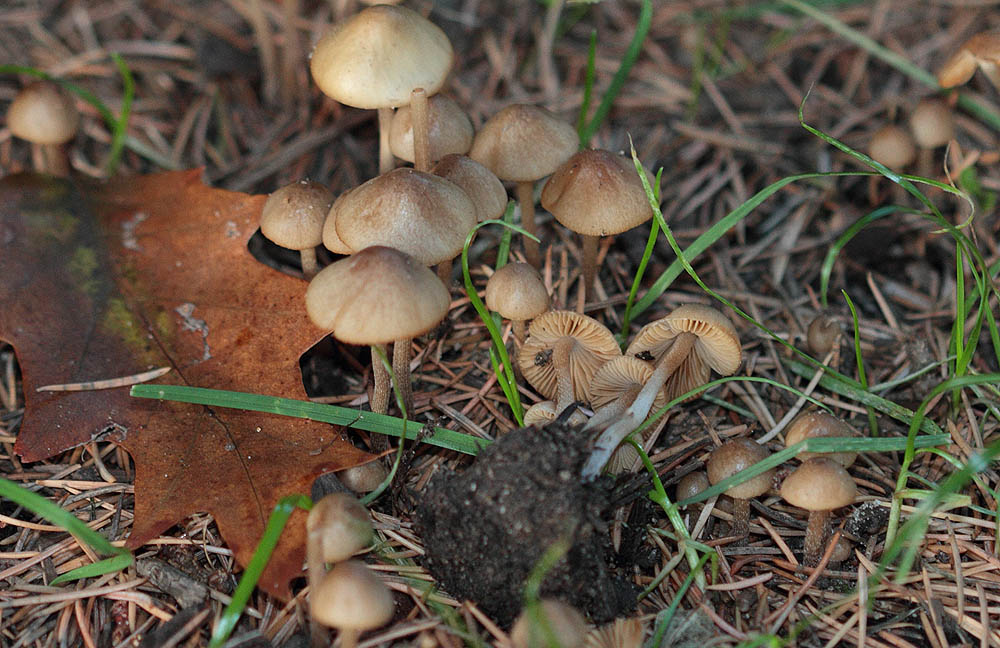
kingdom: Fungi
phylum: Basidiomycota
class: Agaricomycetes
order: Agaricales
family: Bolbitiaceae
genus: Conocybe
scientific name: Conocybe rickenii
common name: møg-keglehat
